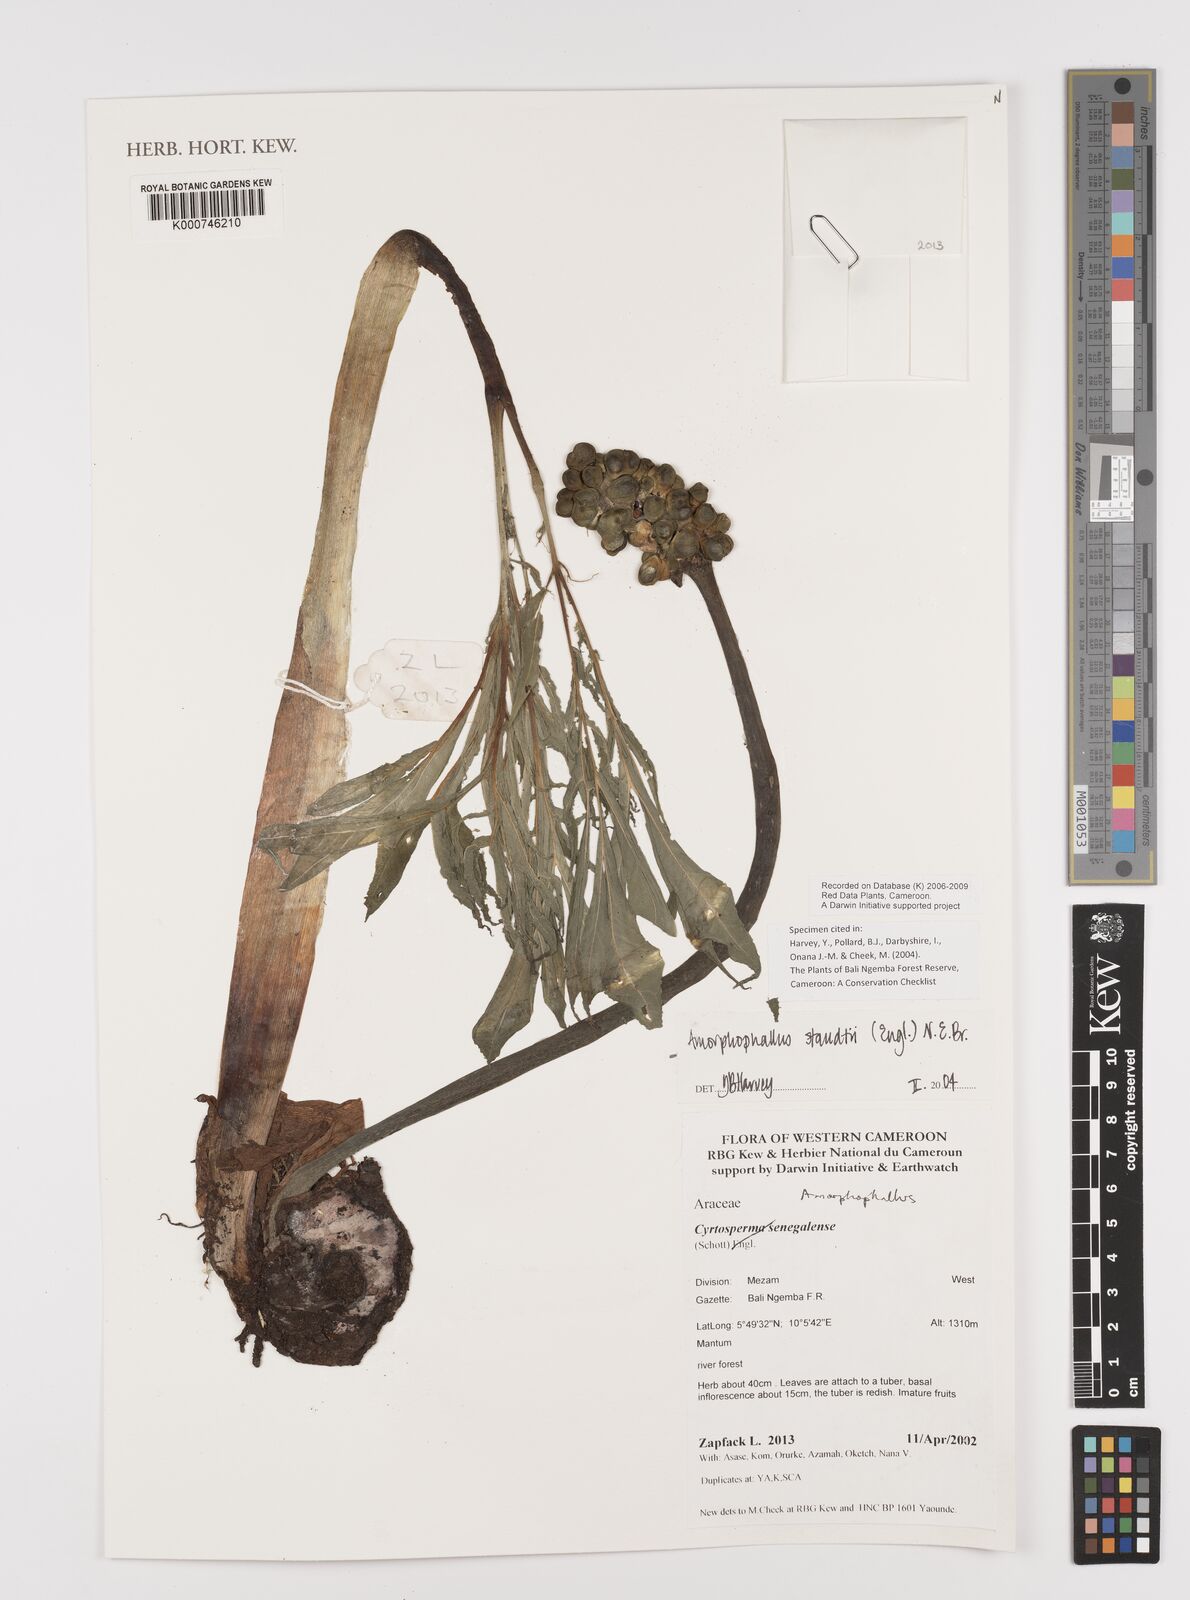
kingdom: Plantae
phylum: Tracheophyta
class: Liliopsida
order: Alismatales
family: Araceae
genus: Amorphophallus
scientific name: Amorphophallus staudtii
